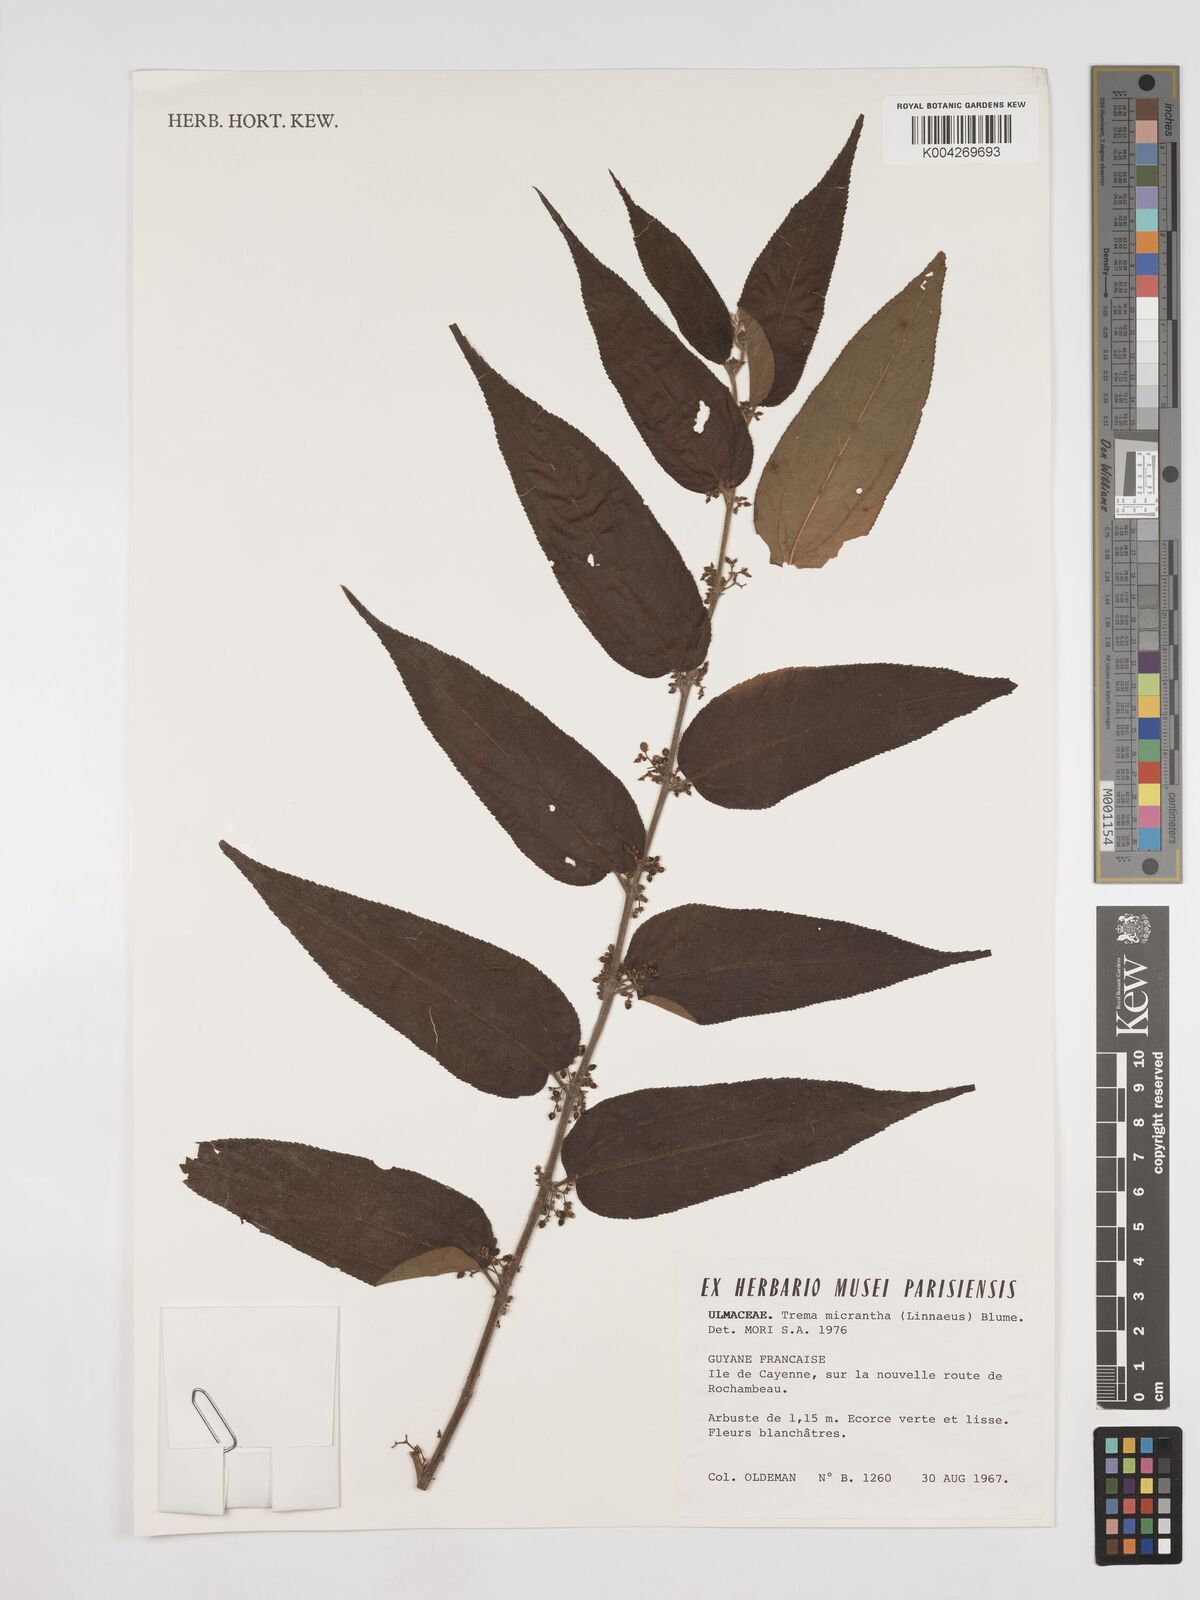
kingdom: Plantae
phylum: Tracheophyta
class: Magnoliopsida
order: Rosales
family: Cannabaceae
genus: Trema
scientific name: Trema micranthum
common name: Jamaican nettletree
